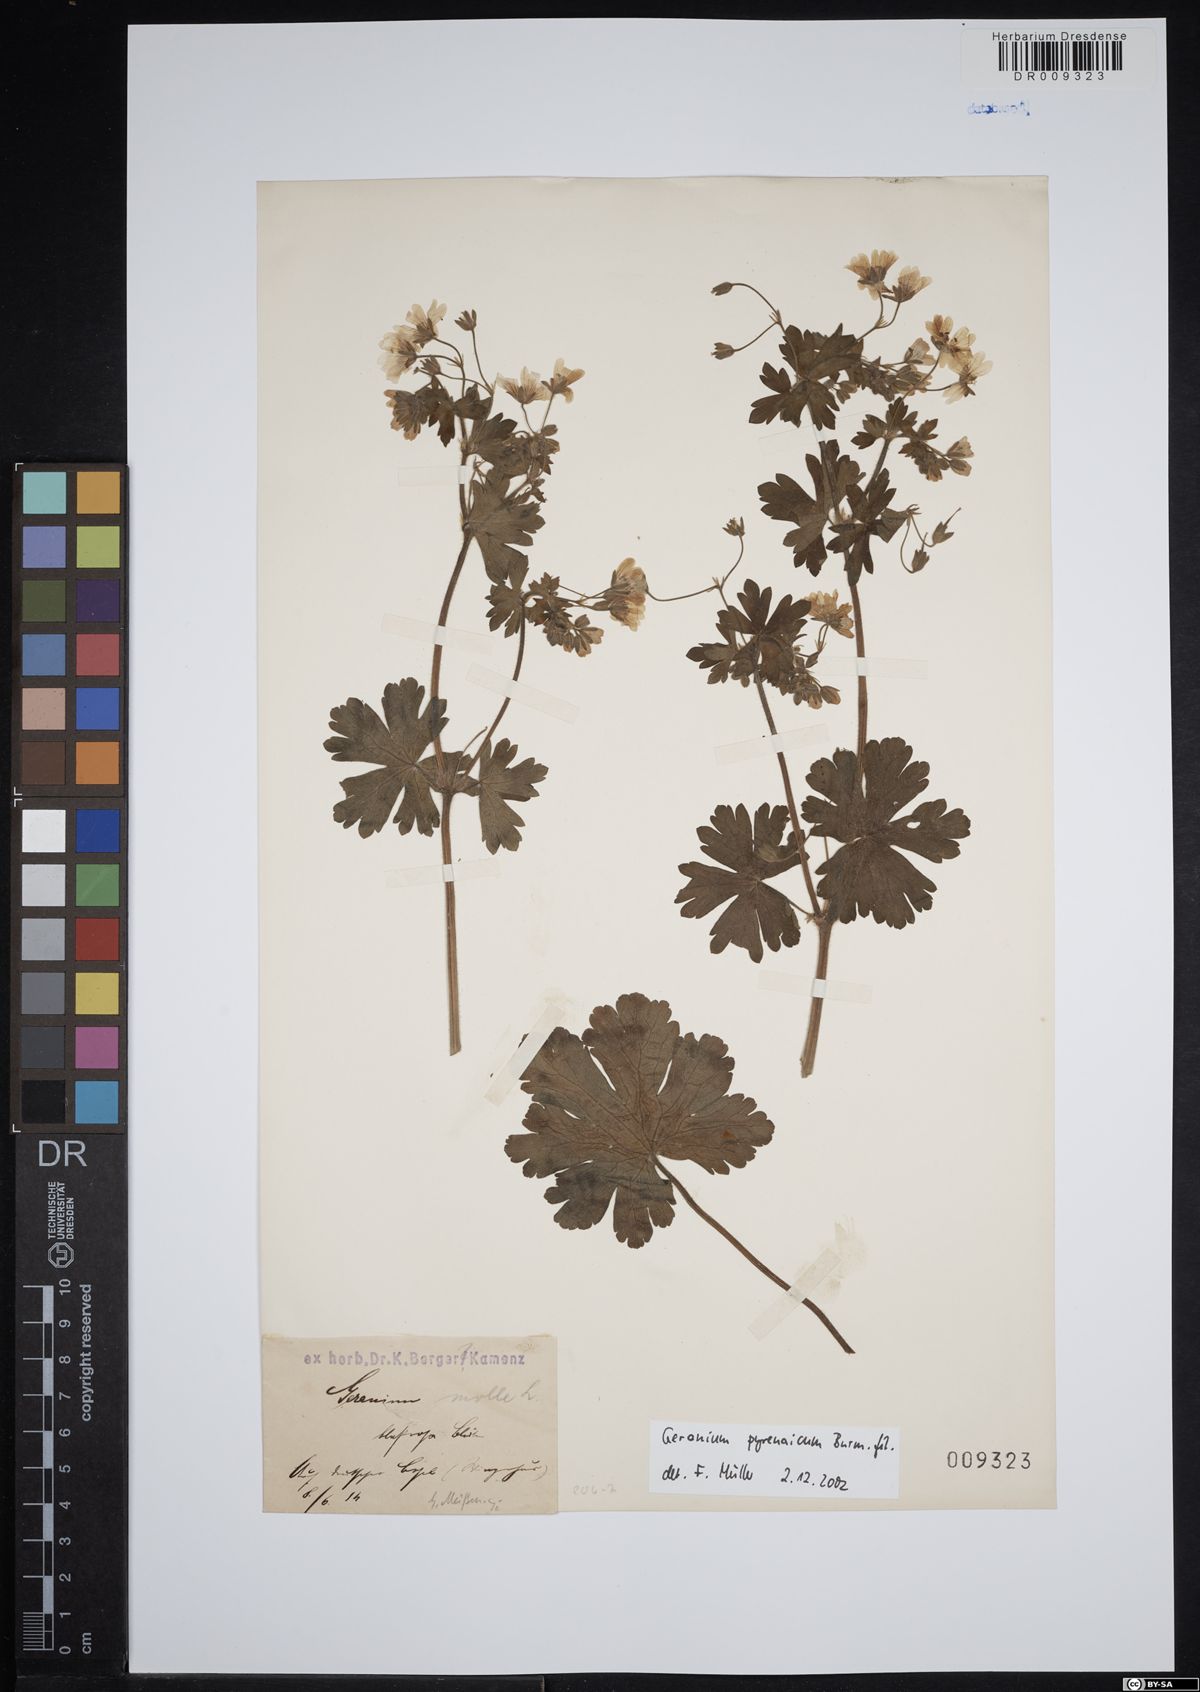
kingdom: Plantae
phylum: Tracheophyta
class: Magnoliopsida
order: Geraniales
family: Geraniaceae
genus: Geranium
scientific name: Geranium pyrenaicum
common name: Hedgerow crane's-bill
